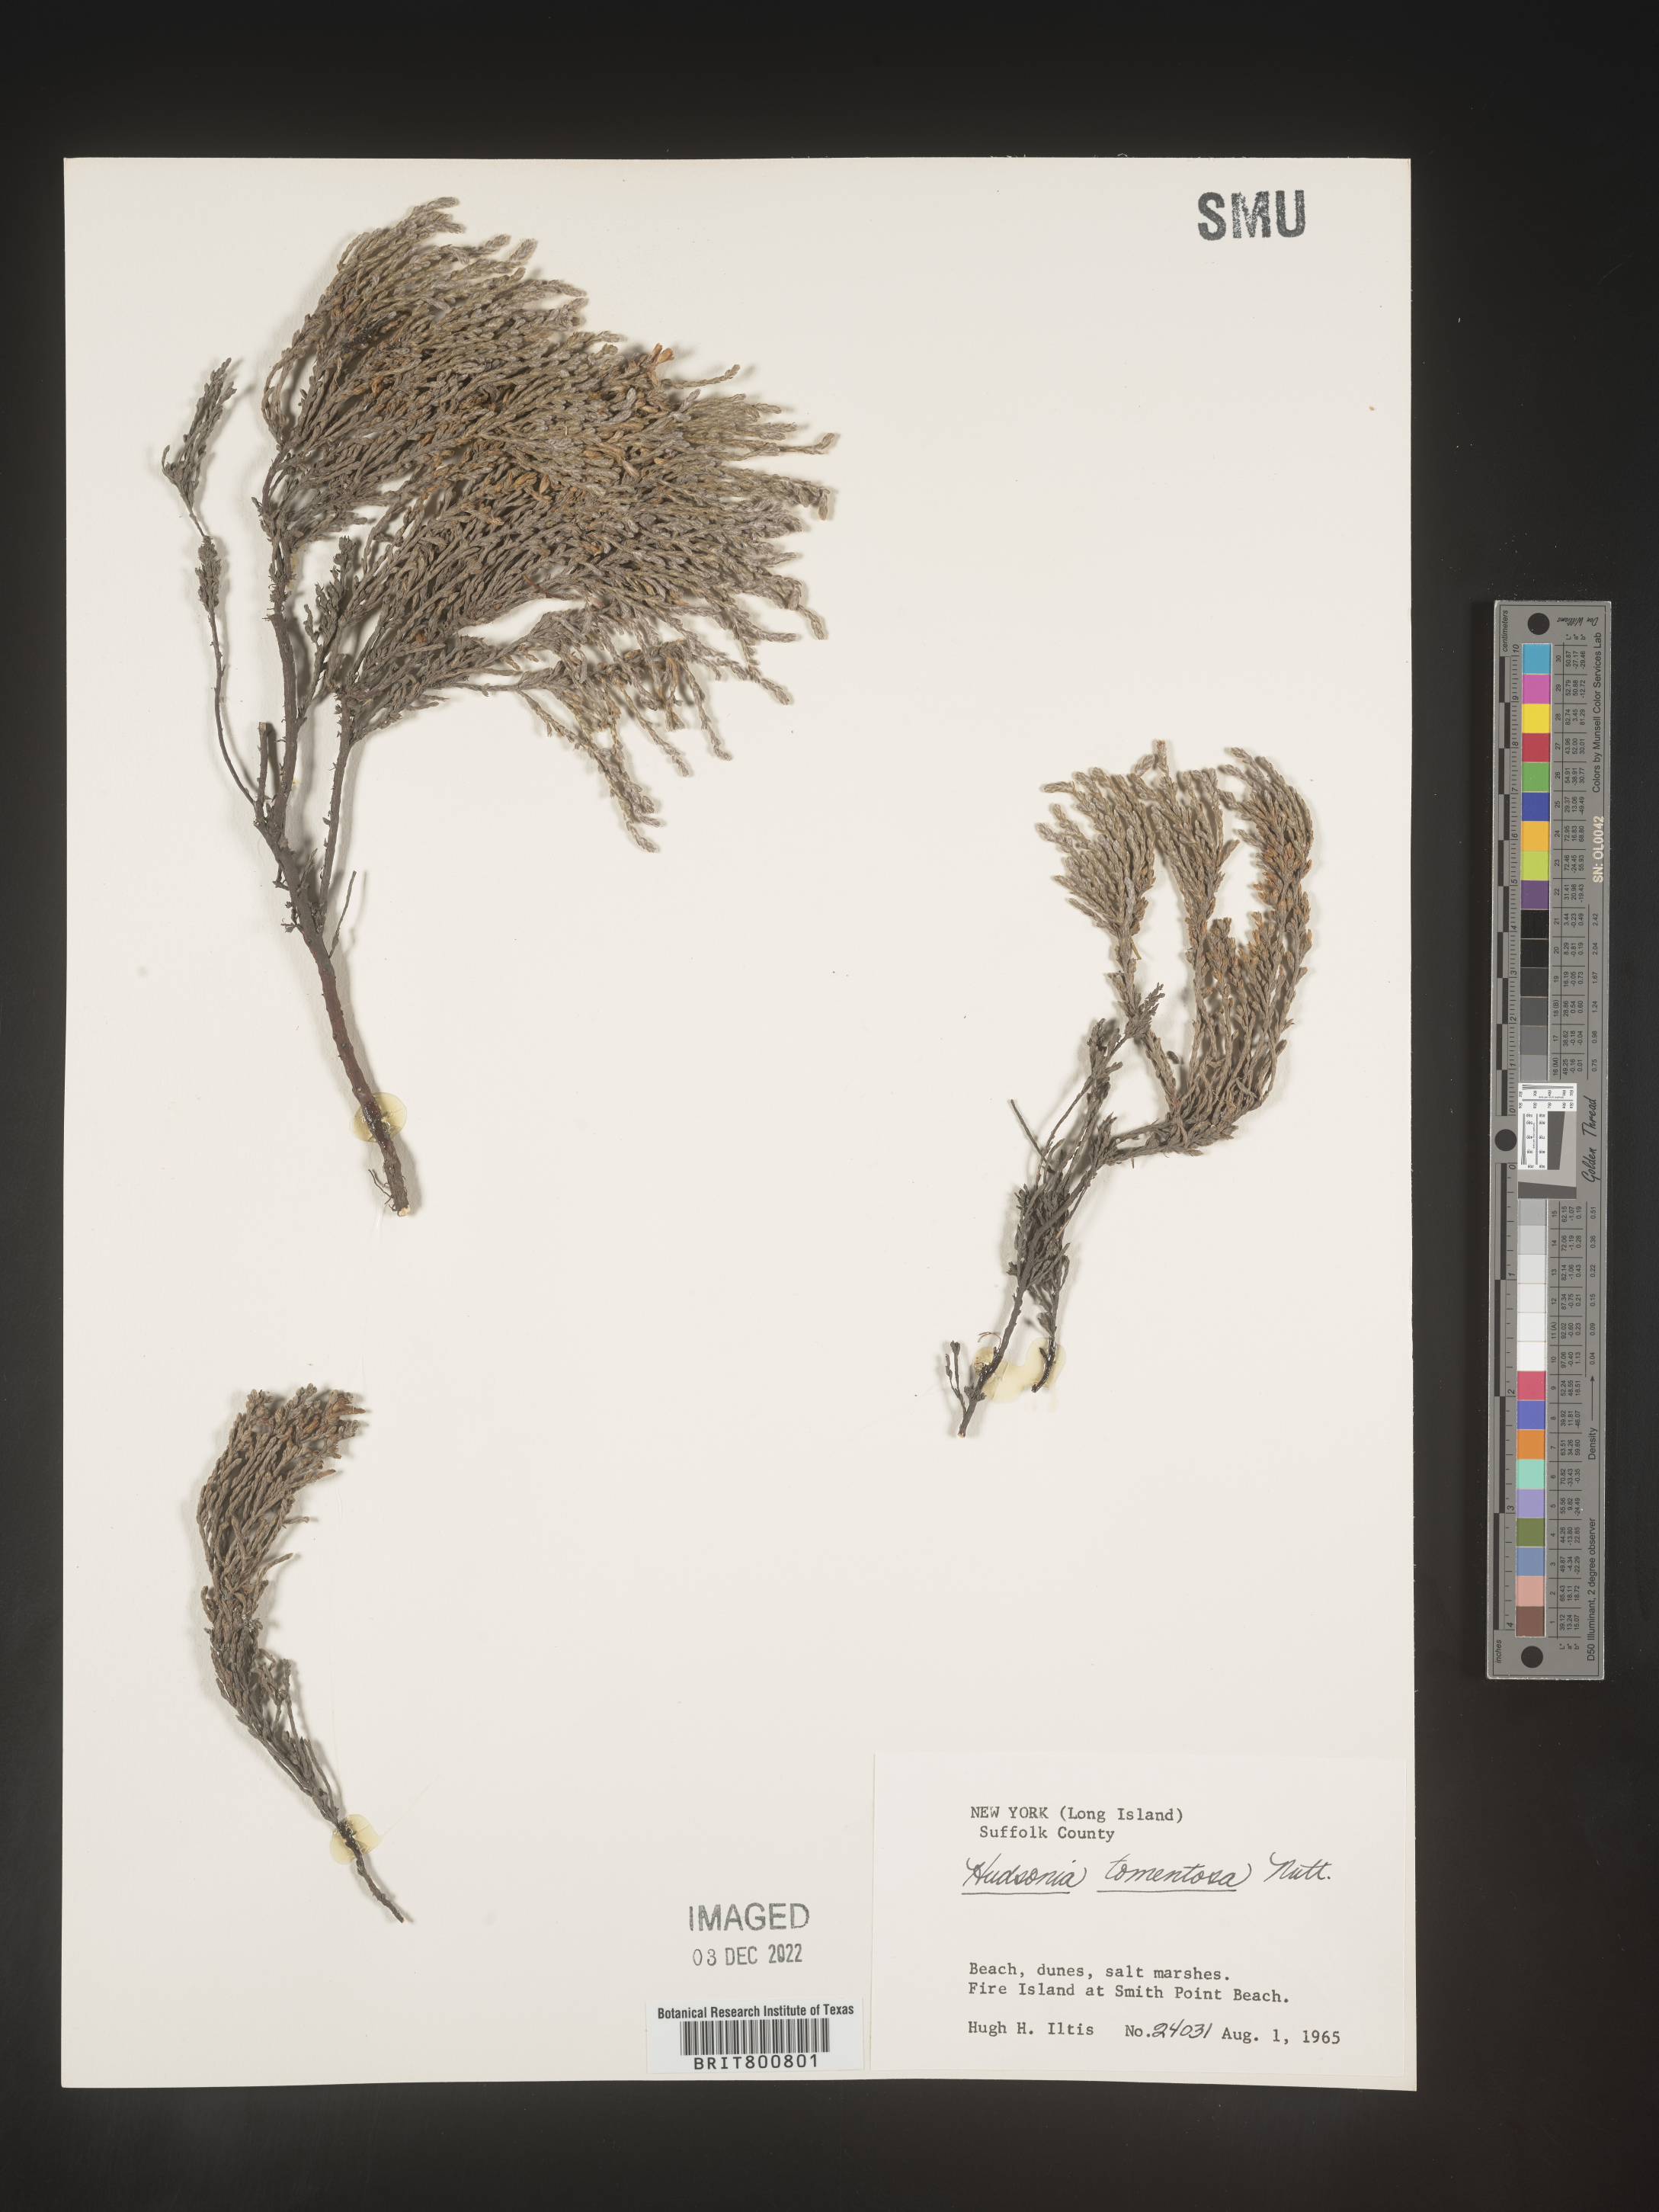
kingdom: Plantae
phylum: Tracheophyta
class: Magnoliopsida
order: Malvales
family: Cistaceae
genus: Hudsonia
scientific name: Hudsonia tomentosa
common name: Beach-heath
